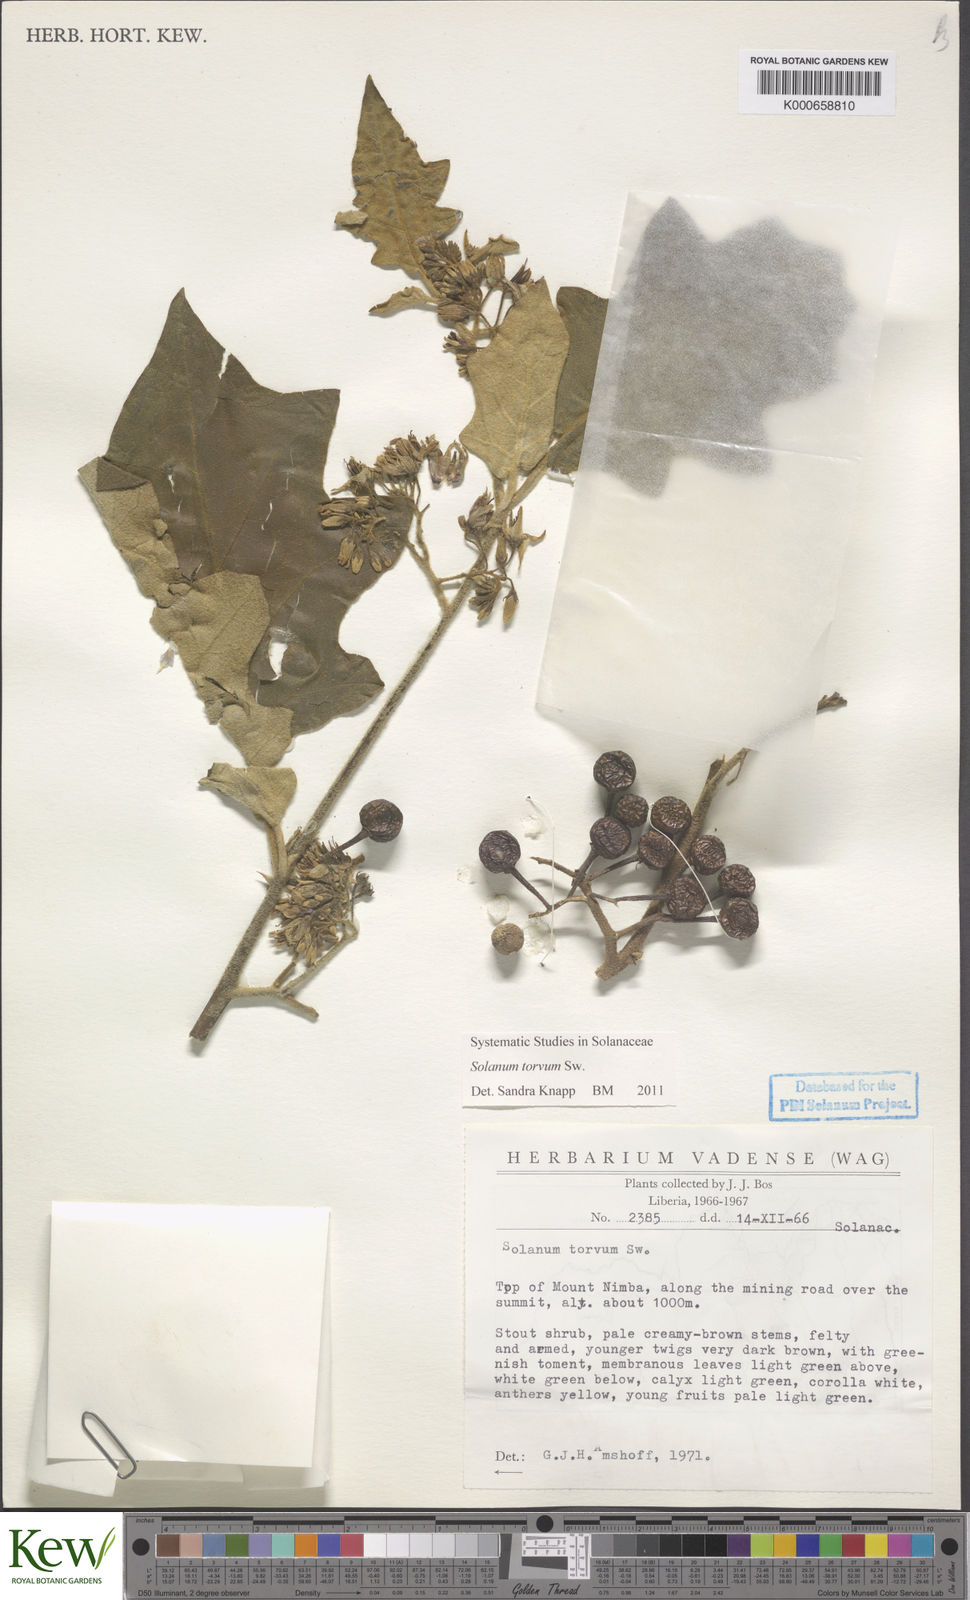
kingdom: Plantae
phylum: Tracheophyta
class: Magnoliopsida
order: Solanales
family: Solanaceae
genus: Solanum
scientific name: Solanum torvum
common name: Turkey berry
